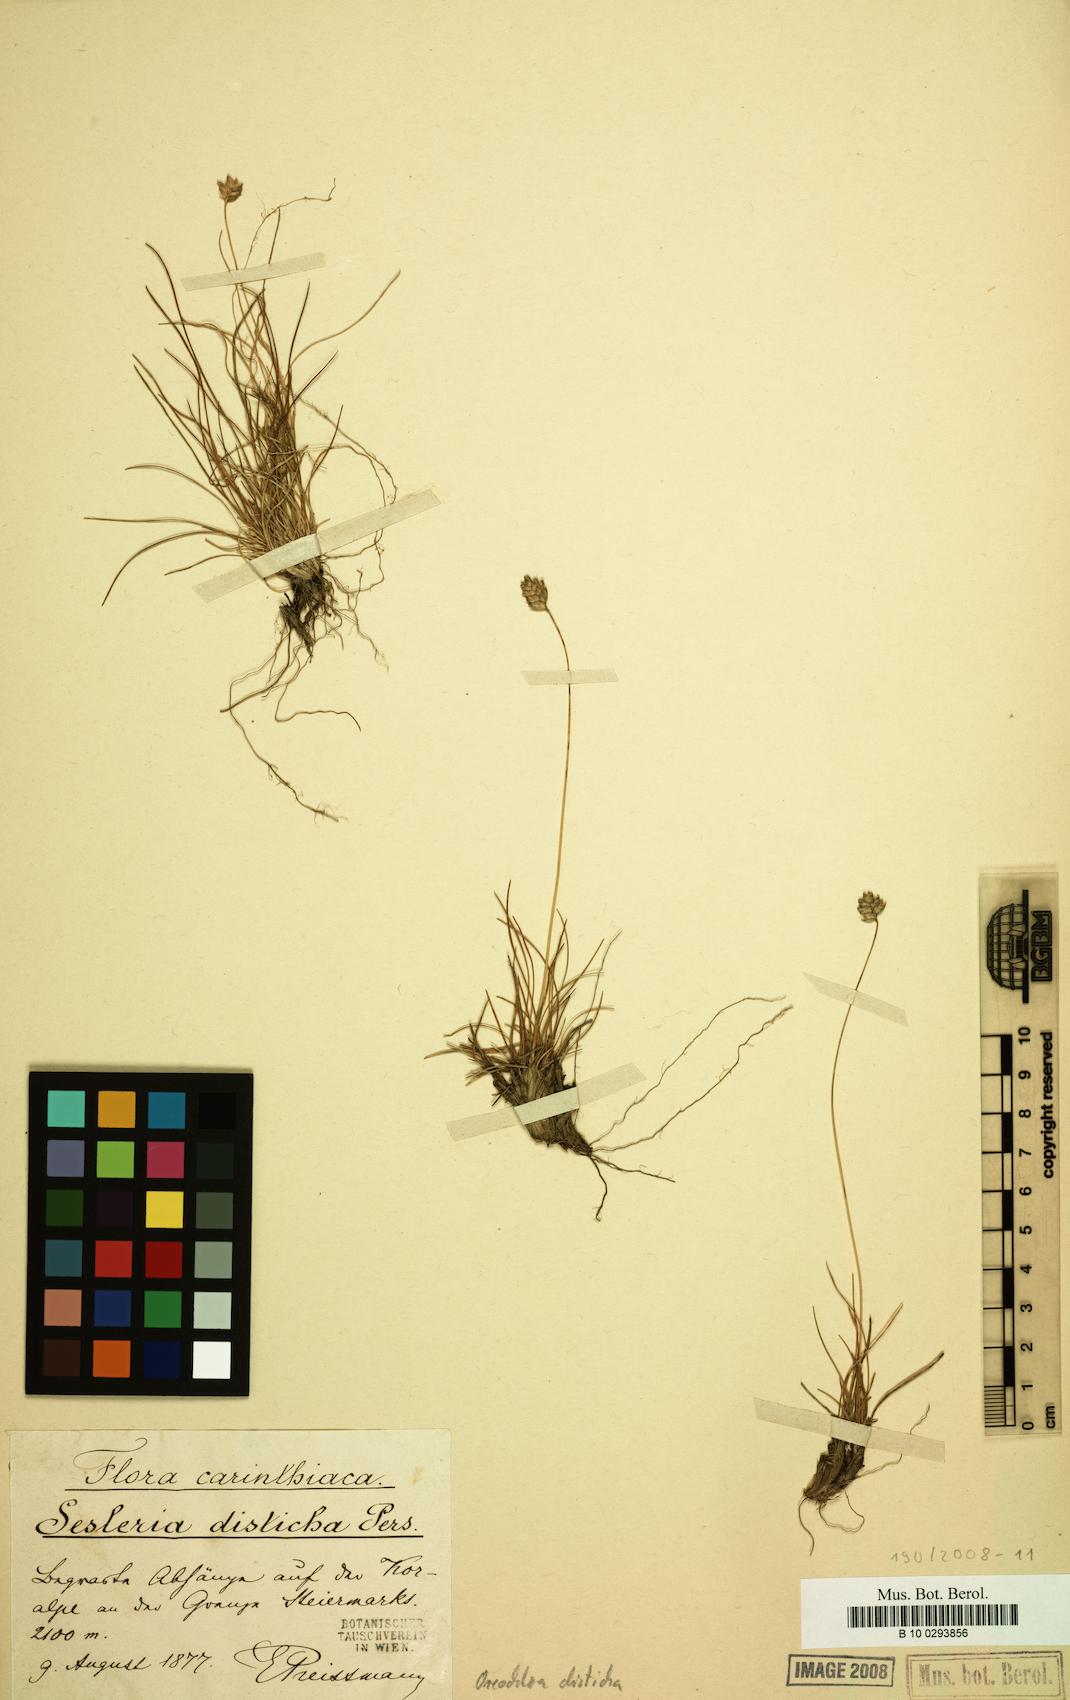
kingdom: Plantae
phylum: Tracheophyta
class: Liliopsida
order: Poales
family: Poaceae
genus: Oreochloa
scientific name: Oreochloa disticha
